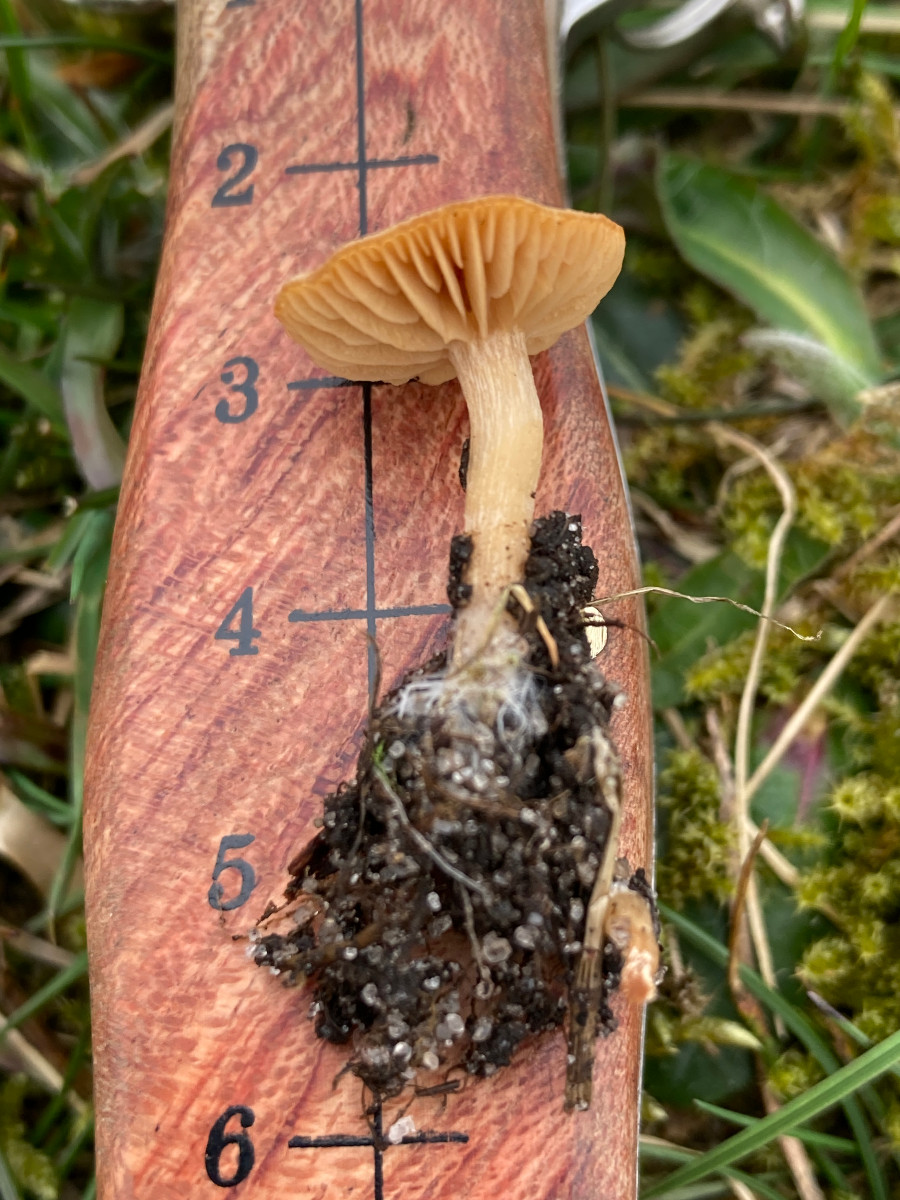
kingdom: Fungi
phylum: Basidiomycota
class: Agaricomycetes
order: Agaricales
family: Tubariaceae
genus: Tubaria
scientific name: Tubaria furfuracea
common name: kliddet fnughat
